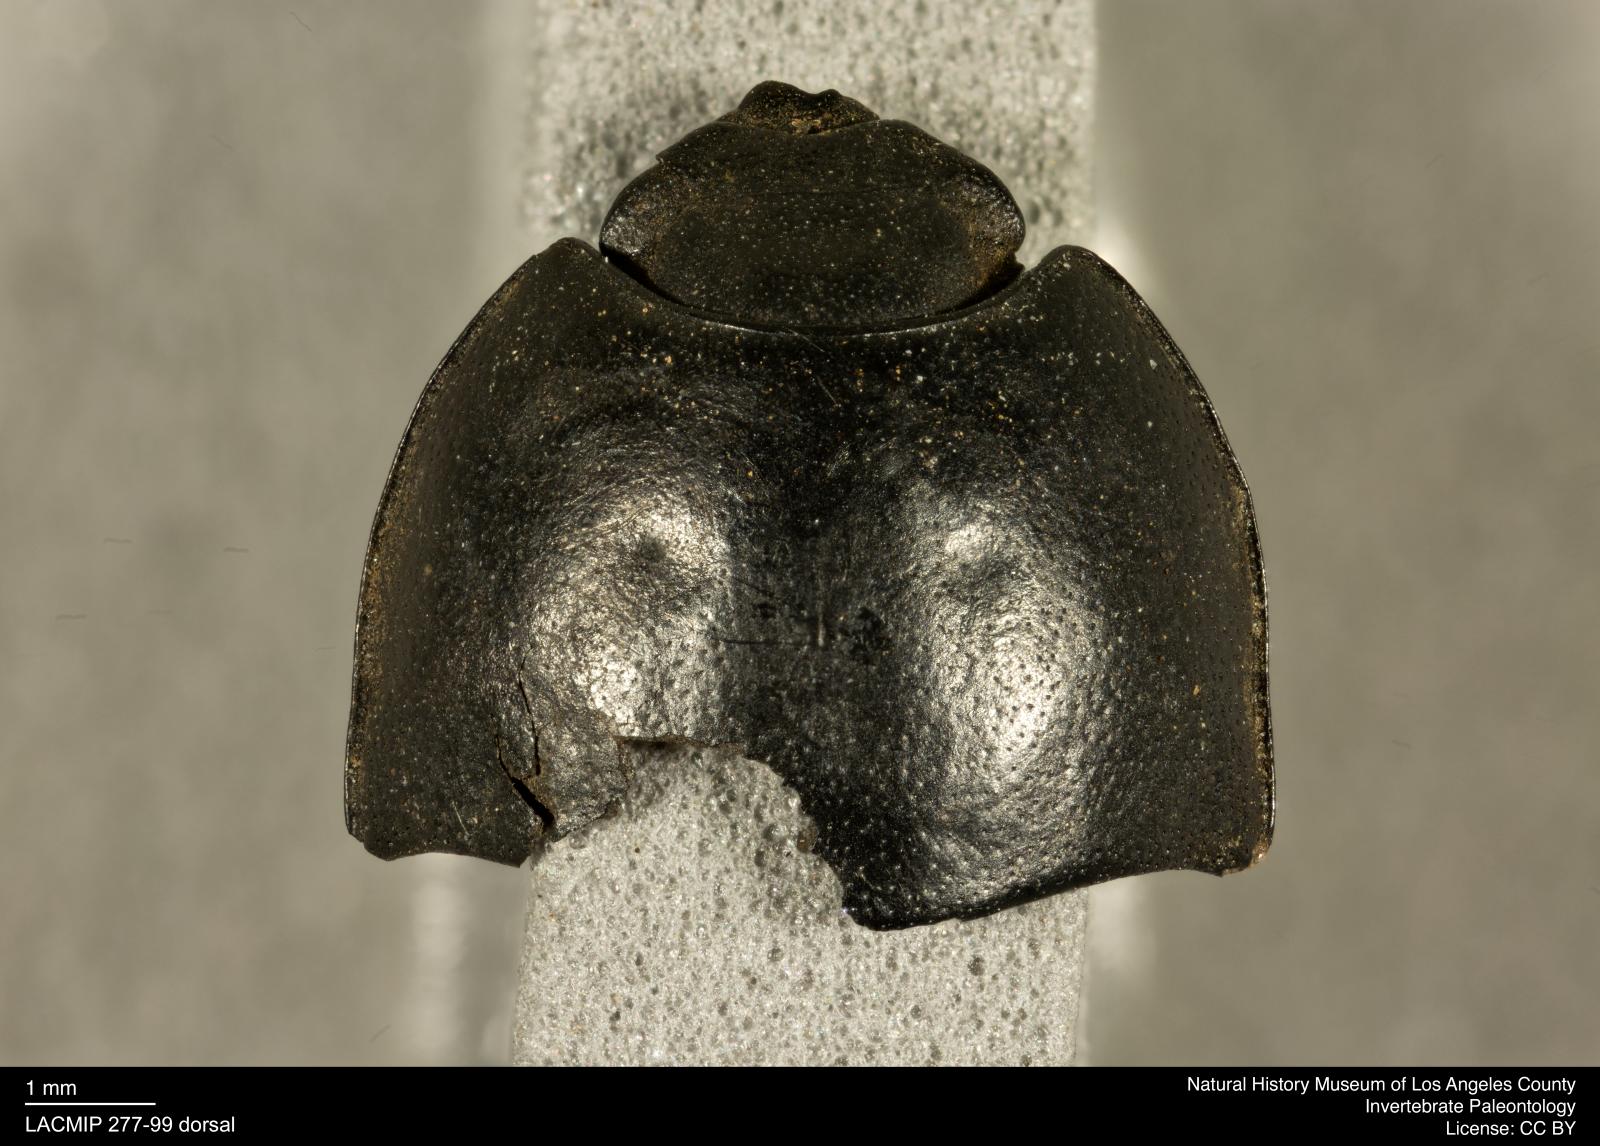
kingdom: Animalia
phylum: Arthropoda
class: Insecta
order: Coleoptera
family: Tenebrionidae
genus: Coniontis
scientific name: Coniontis abdominalis
